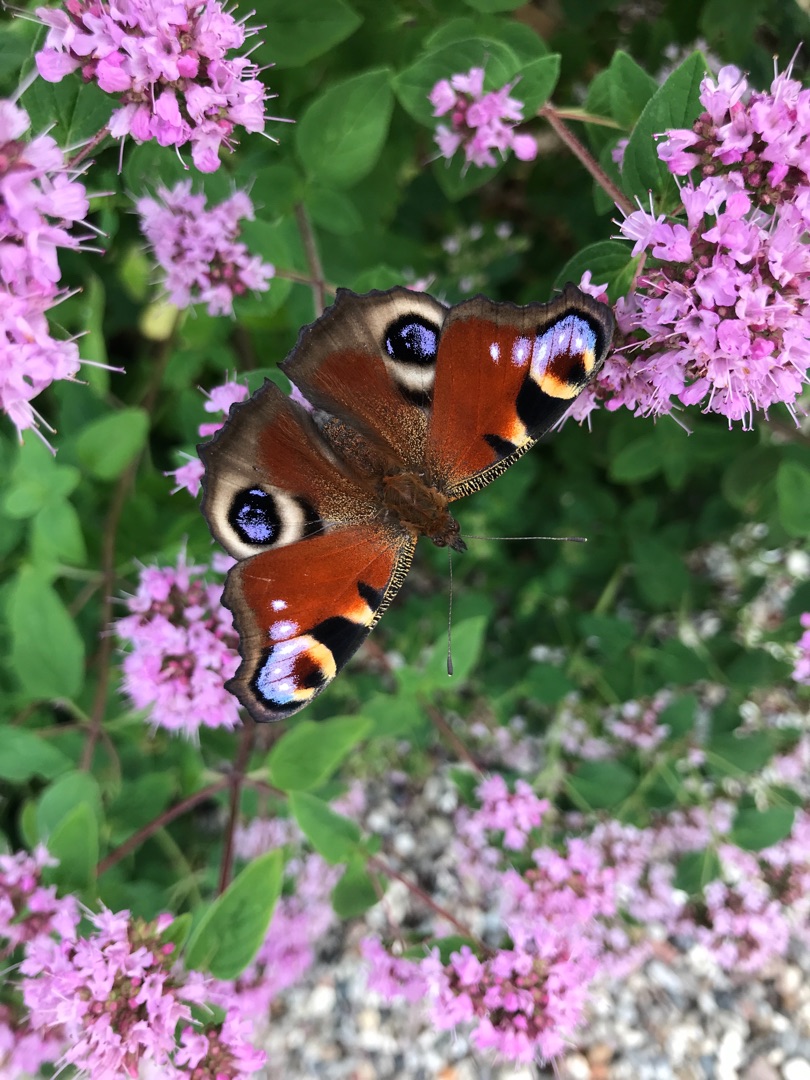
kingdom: Animalia
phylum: Arthropoda
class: Insecta
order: Lepidoptera
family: Nymphalidae
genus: Vanessa
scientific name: Vanessa atalanta
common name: Admiral
